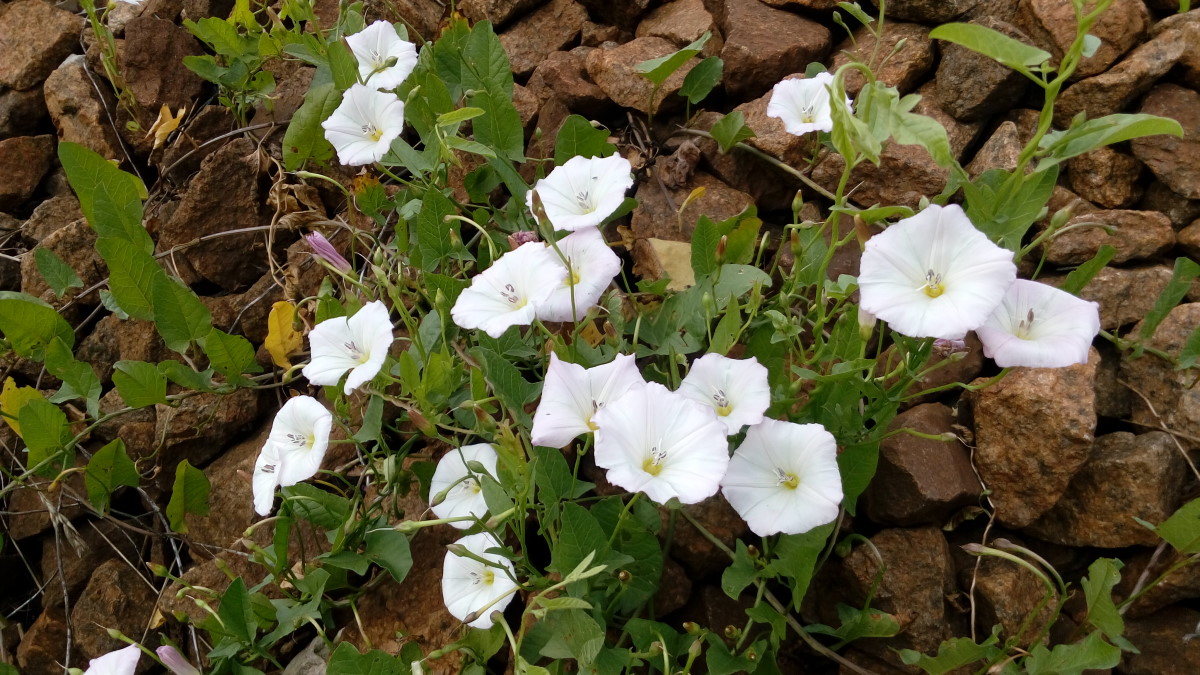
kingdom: Plantae
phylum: Tracheophyta
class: Magnoliopsida
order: Solanales
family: Convolvulaceae
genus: Convolvulus
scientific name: Convolvulus arvensis
